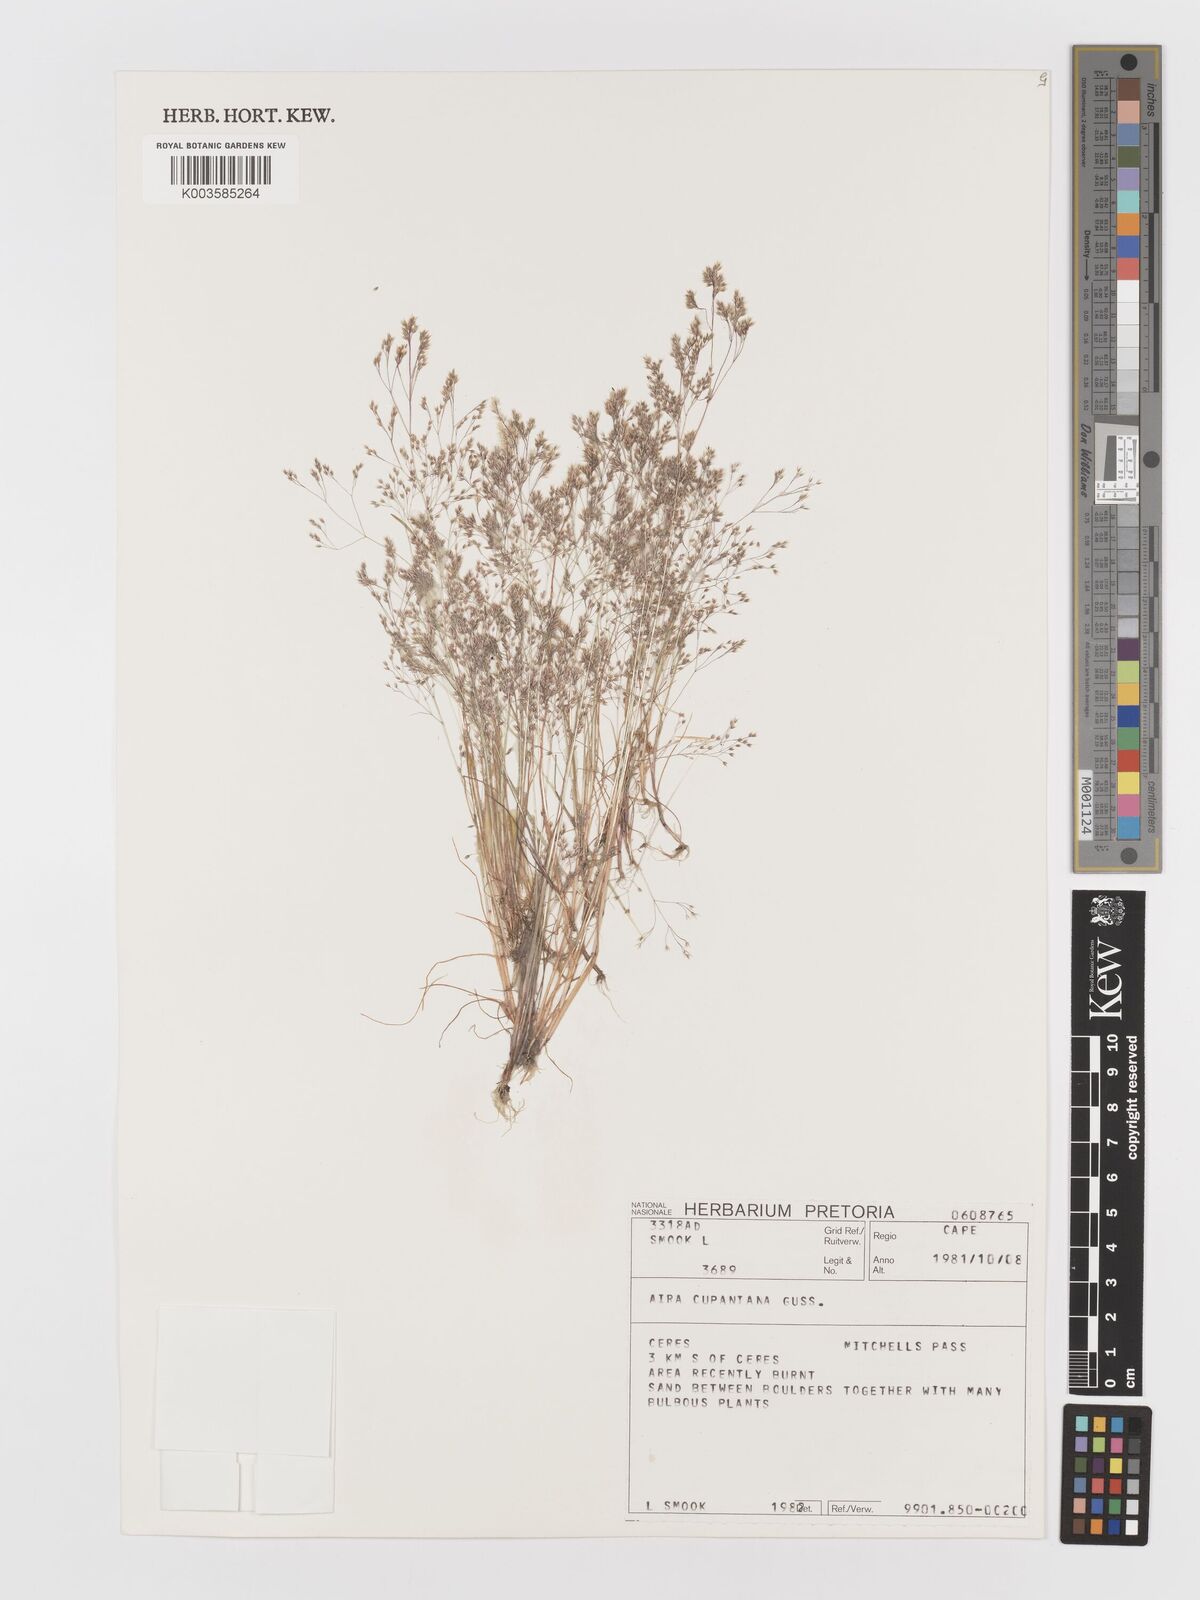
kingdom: Plantae
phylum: Tracheophyta
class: Liliopsida
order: Poales
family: Poaceae
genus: Aira
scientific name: Aira cupaniana
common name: Silver hairgrass
